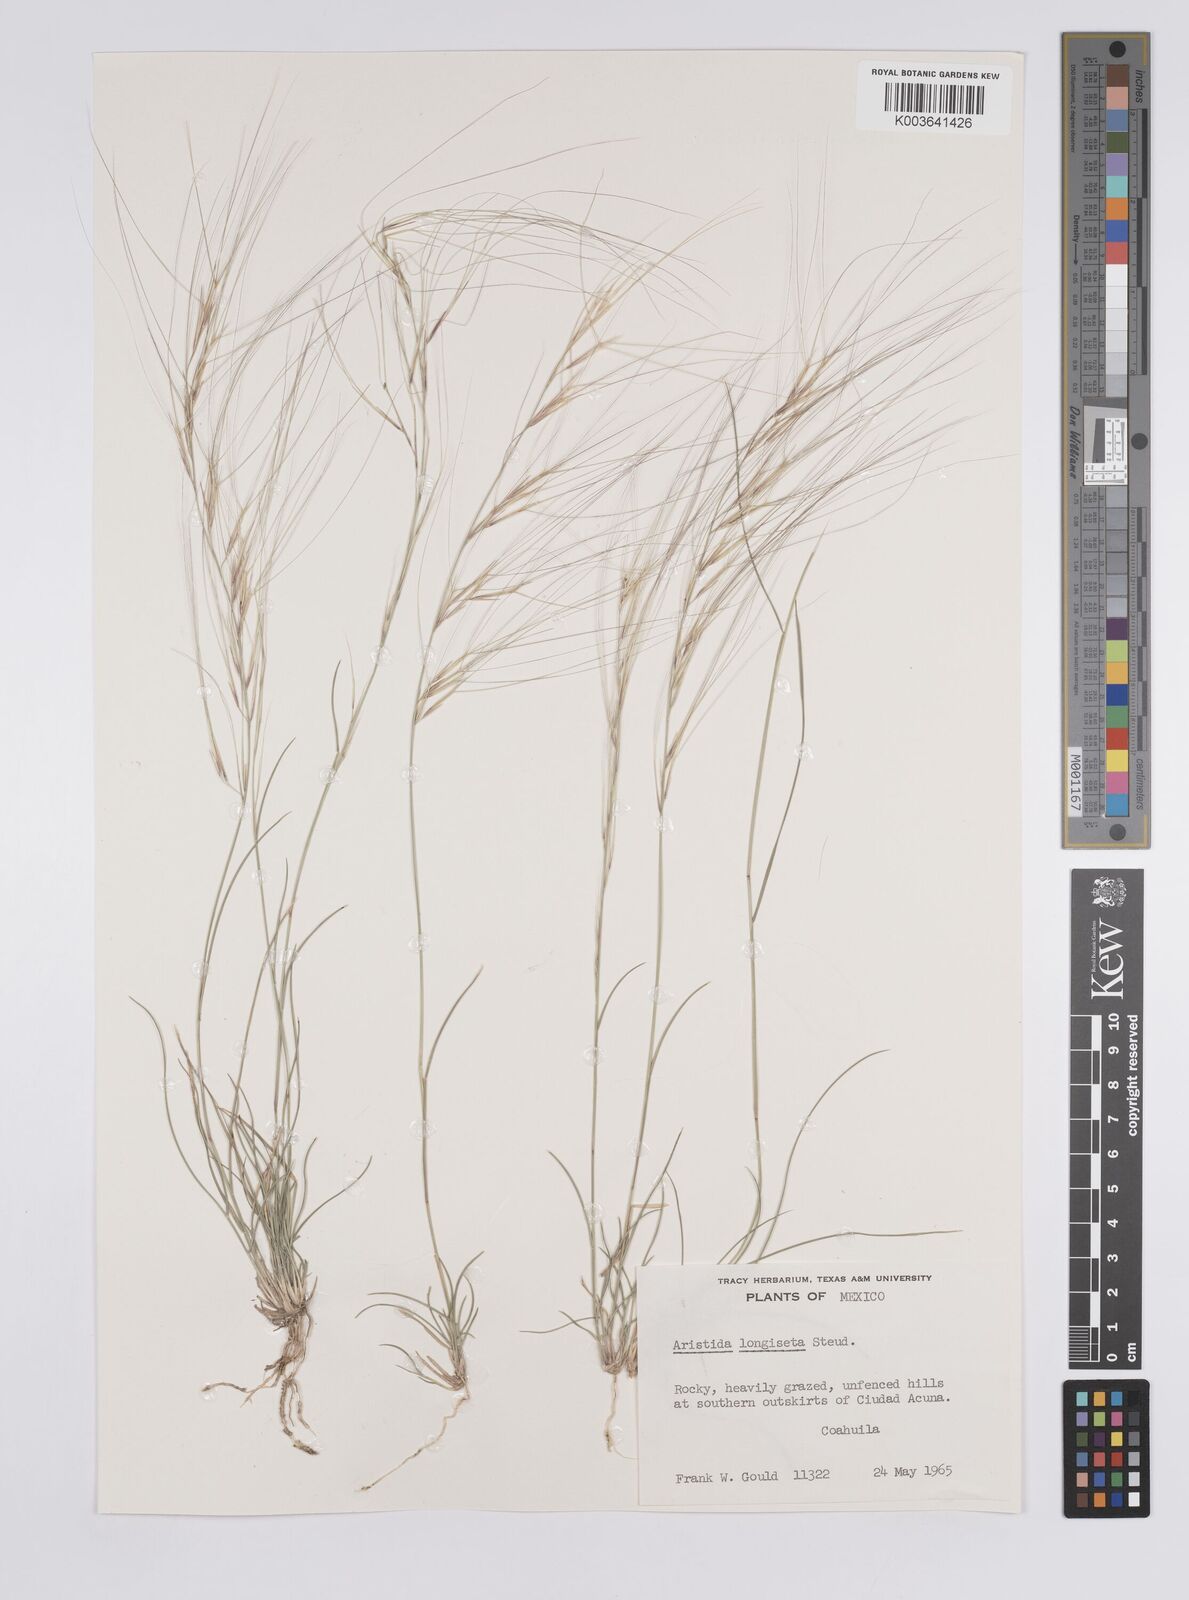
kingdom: Plantae
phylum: Tracheophyta
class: Liliopsida
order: Poales
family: Poaceae
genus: Aristida
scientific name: Aristida purpurea
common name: Purple threeawn
